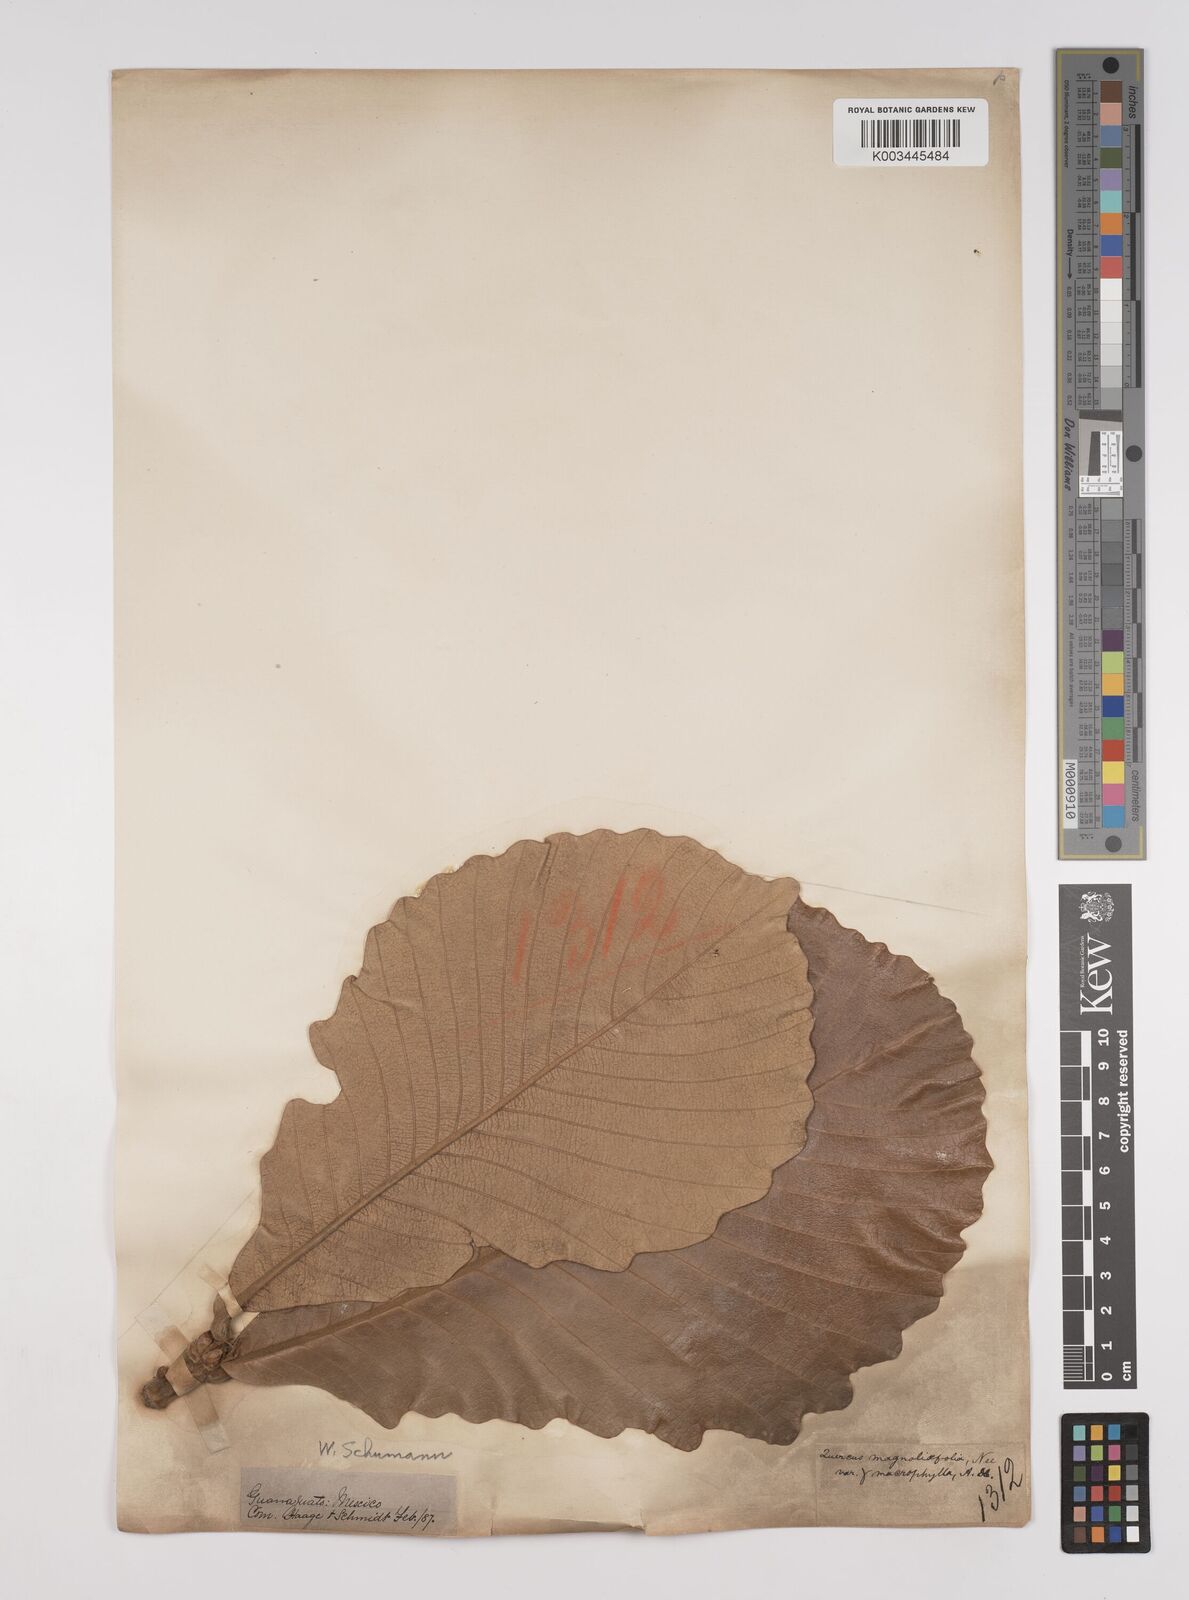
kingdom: Plantae
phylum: Tracheophyta
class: Magnoliopsida
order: Fagales
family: Fagaceae
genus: Quercus
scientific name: Quercus
